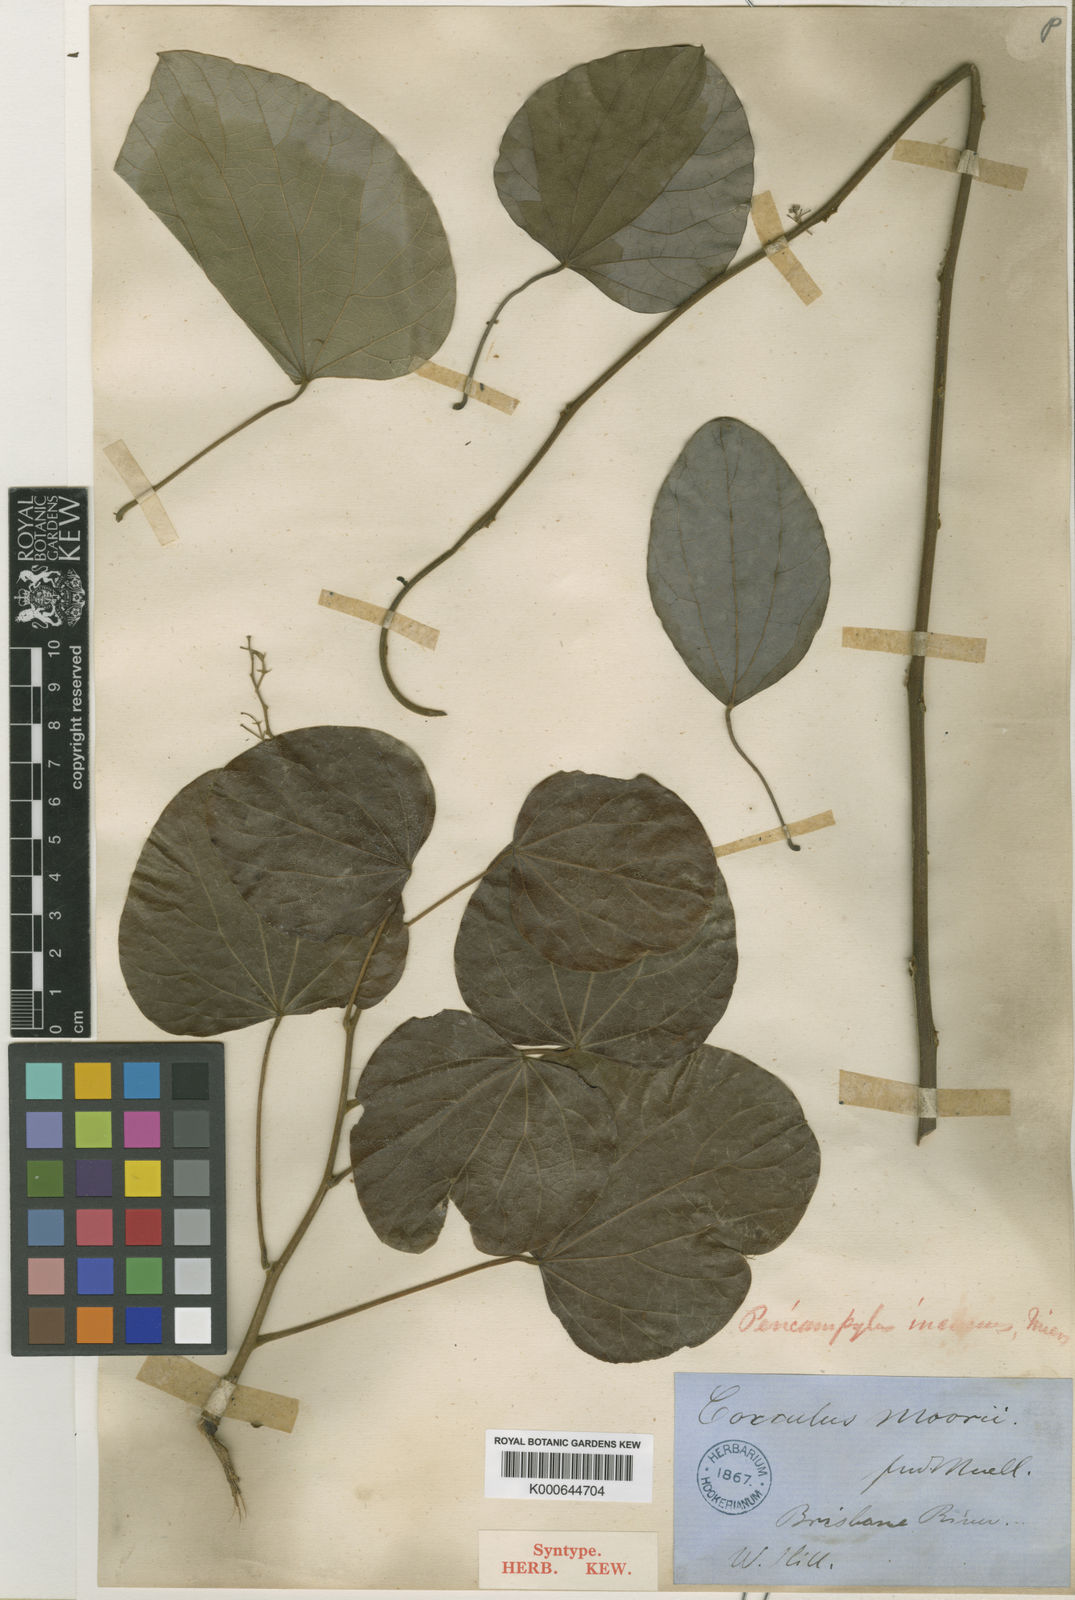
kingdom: Plantae
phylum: Tracheophyta
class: Magnoliopsida
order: Ranunculales
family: Menispermaceae
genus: Legnephora
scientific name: Legnephora moorei
